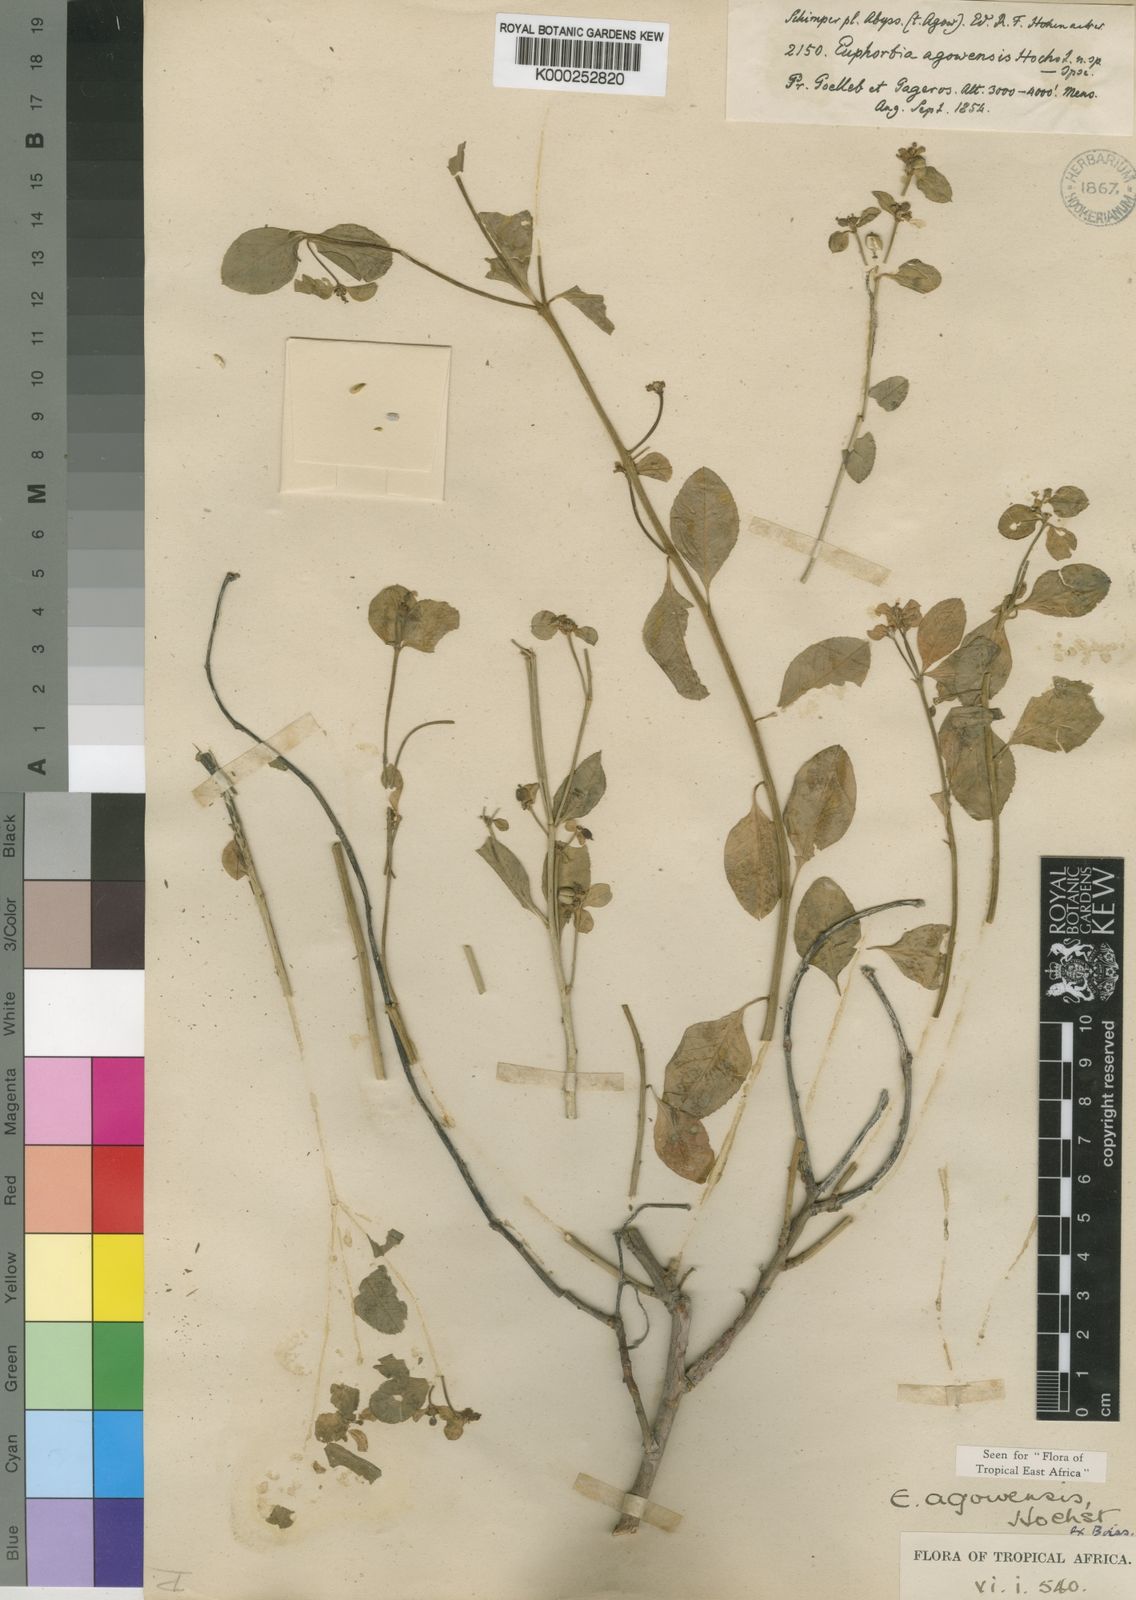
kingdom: Plantae
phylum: Tracheophyta
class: Magnoliopsida
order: Malpighiales
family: Euphorbiaceae
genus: Euphorbia
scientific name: Euphorbia agowensis
